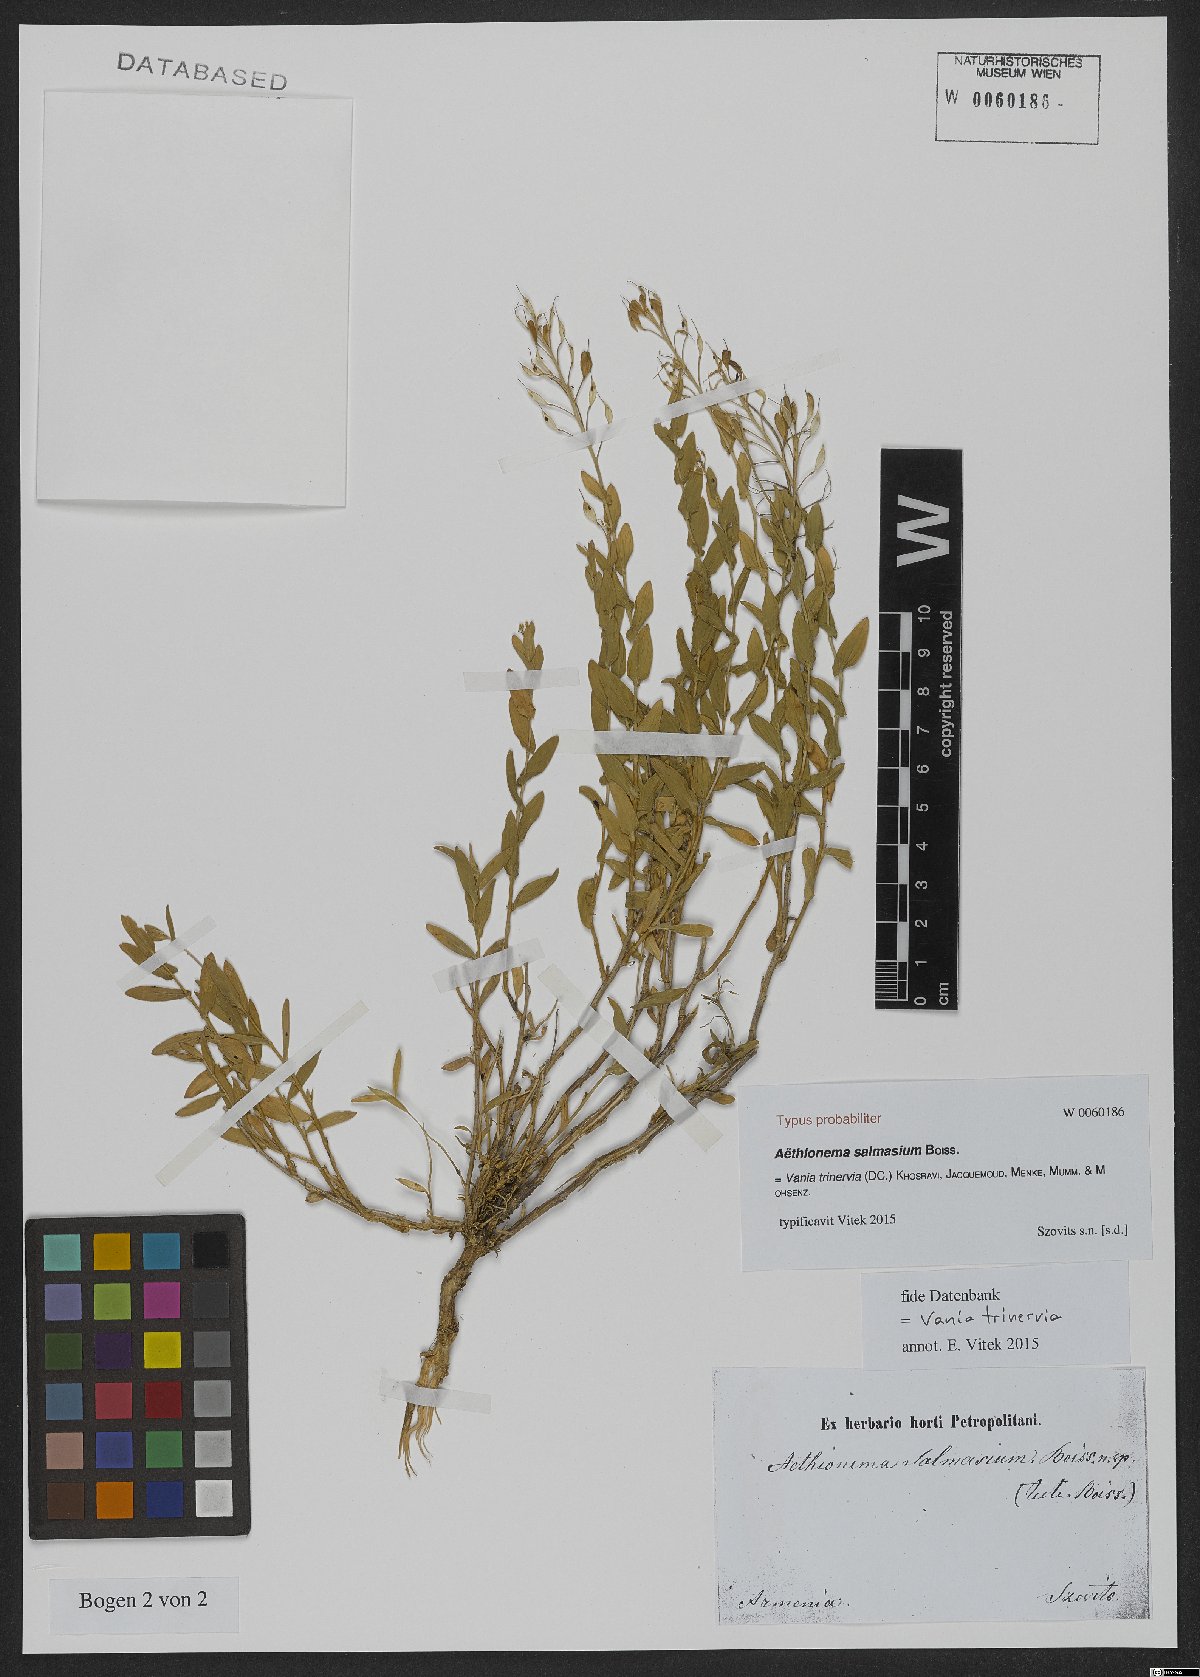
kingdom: Plantae
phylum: Tracheophyta
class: Magnoliopsida
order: Brassicales
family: Brassicaceae
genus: Noccaea
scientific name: Noccaea trinervia
